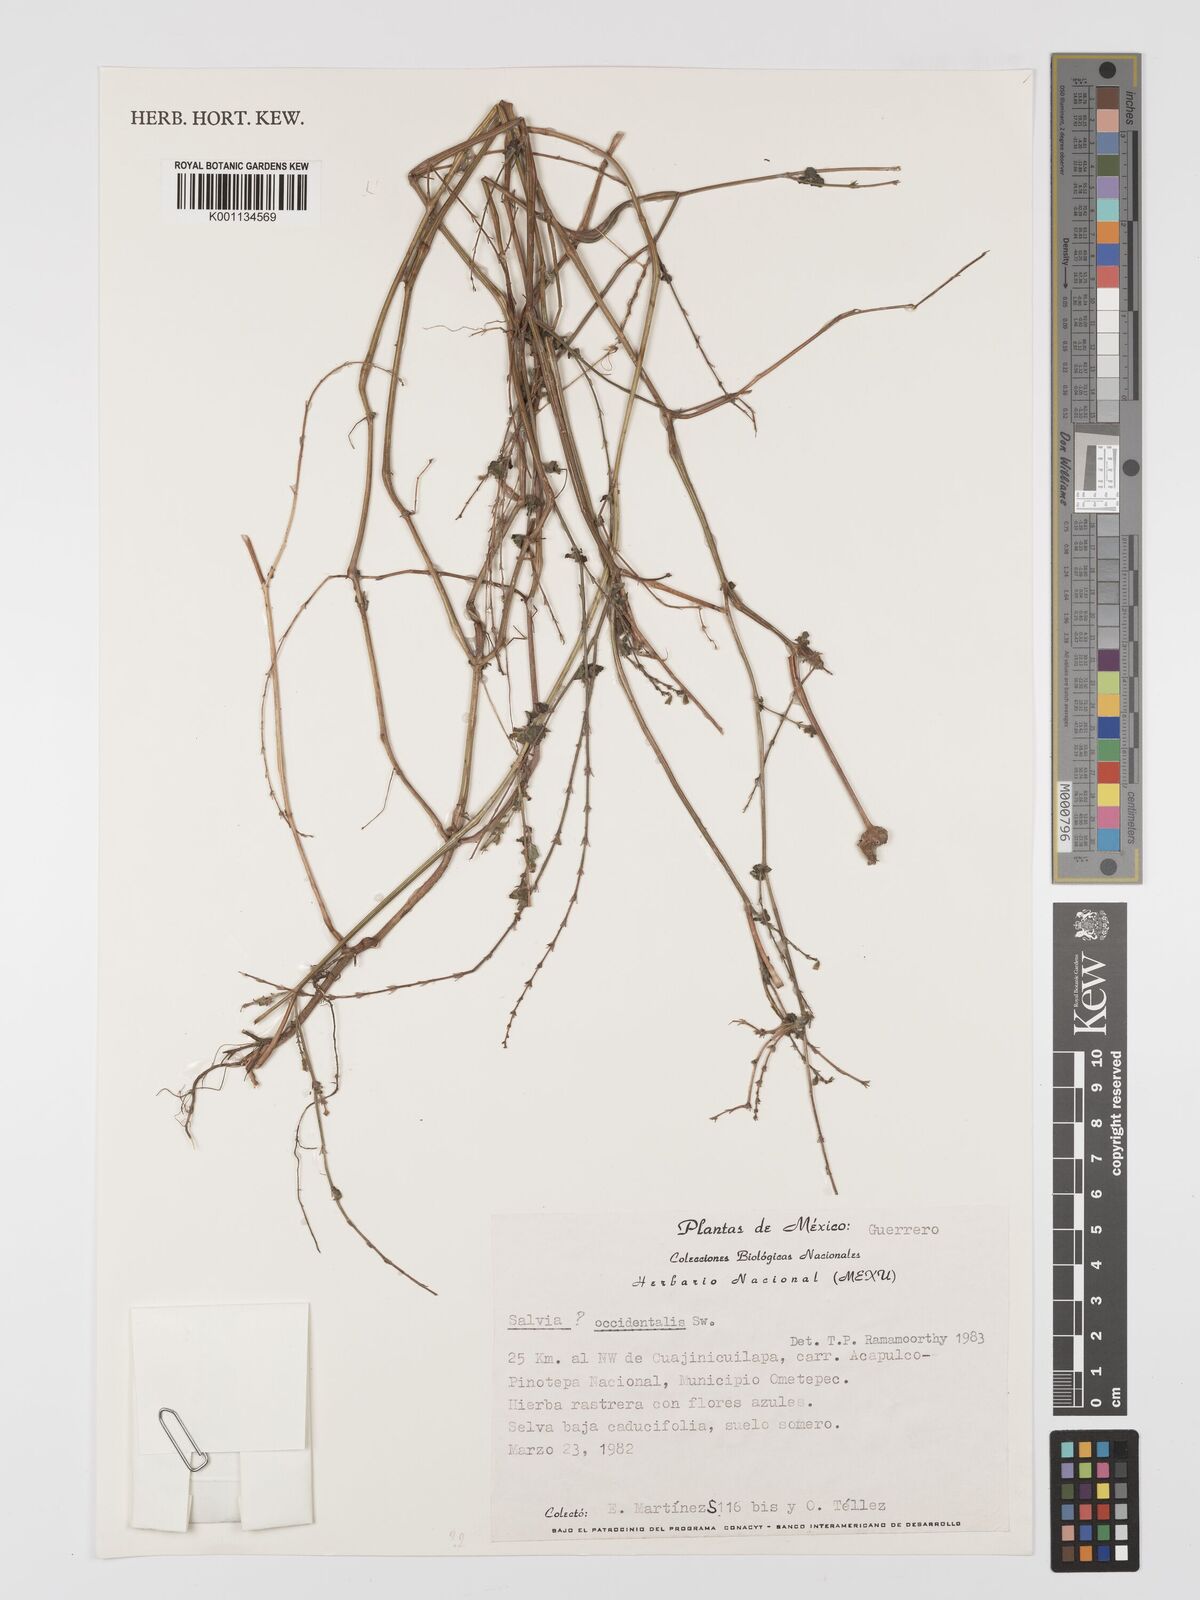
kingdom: Plantae
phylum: Tracheophyta
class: Magnoliopsida
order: Lamiales
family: Lamiaceae
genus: Salvia
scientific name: Salvia occidentalis
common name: West indian sage
